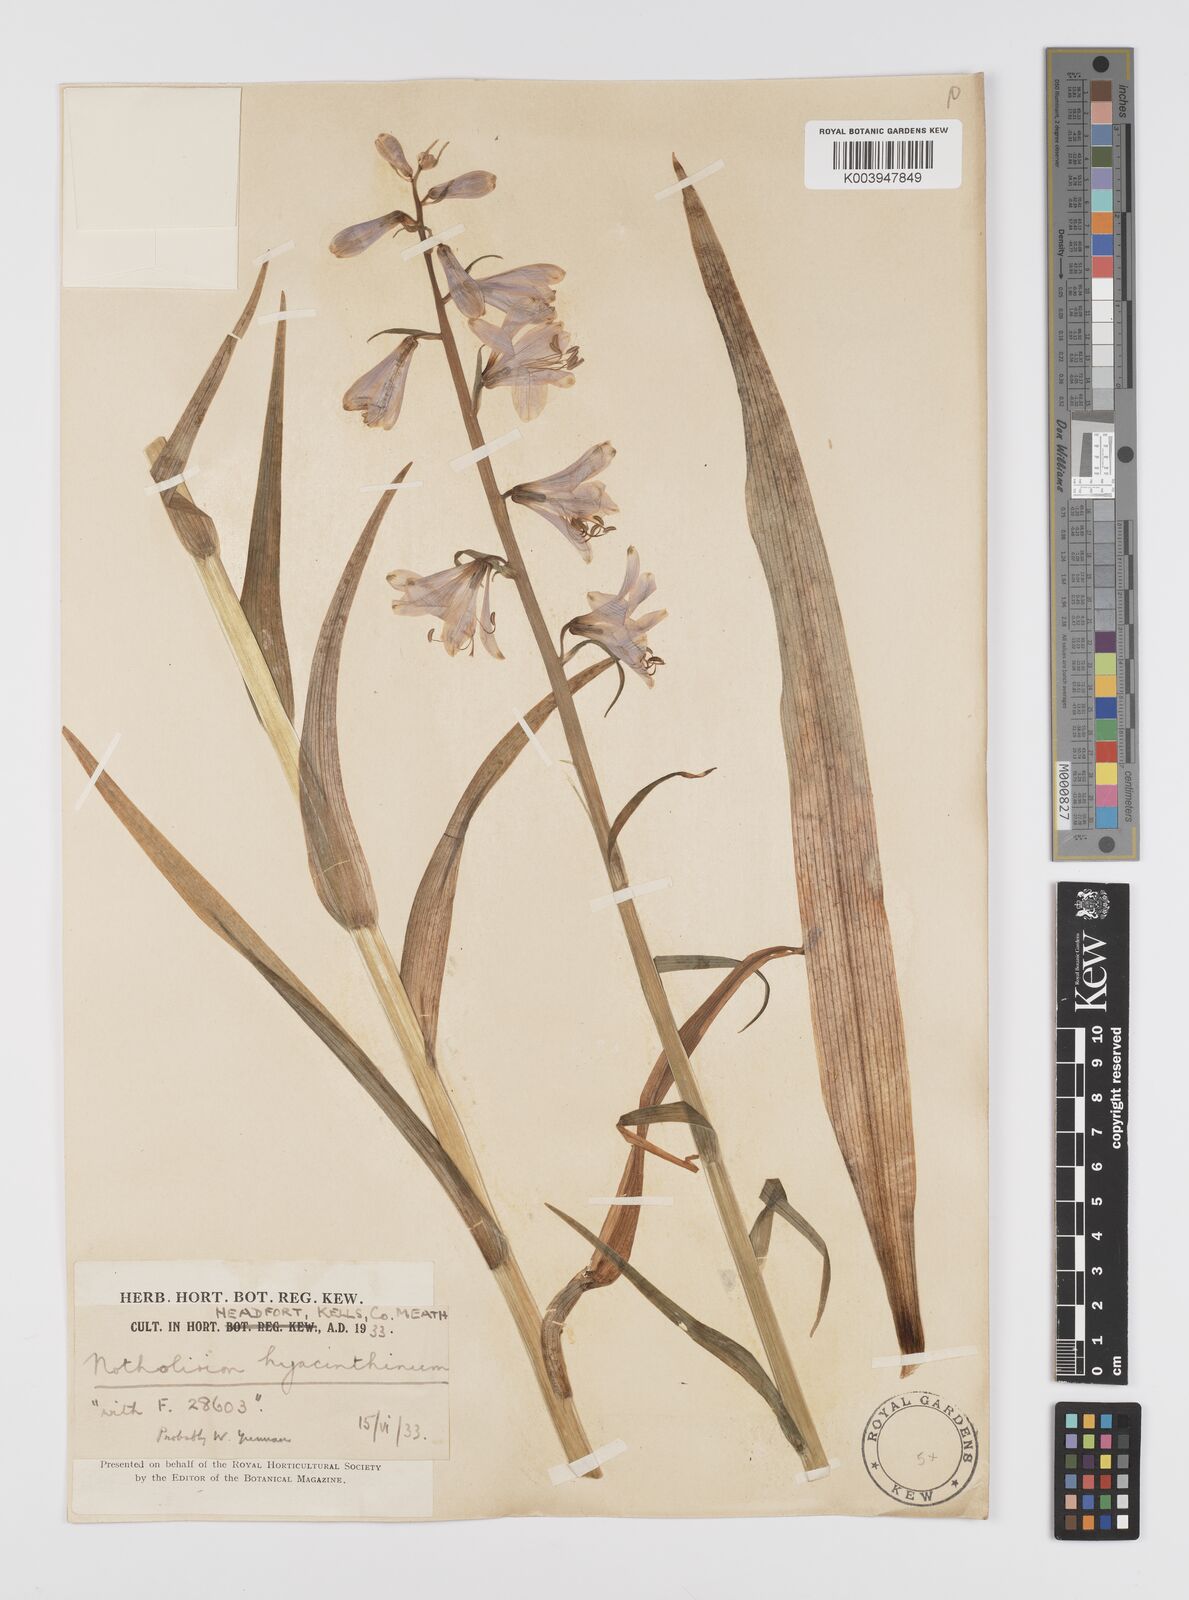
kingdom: Plantae
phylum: Tracheophyta
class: Liliopsida
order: Liliales
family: Liliaceae
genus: Notholirion
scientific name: Notholirion bulbuliferum
